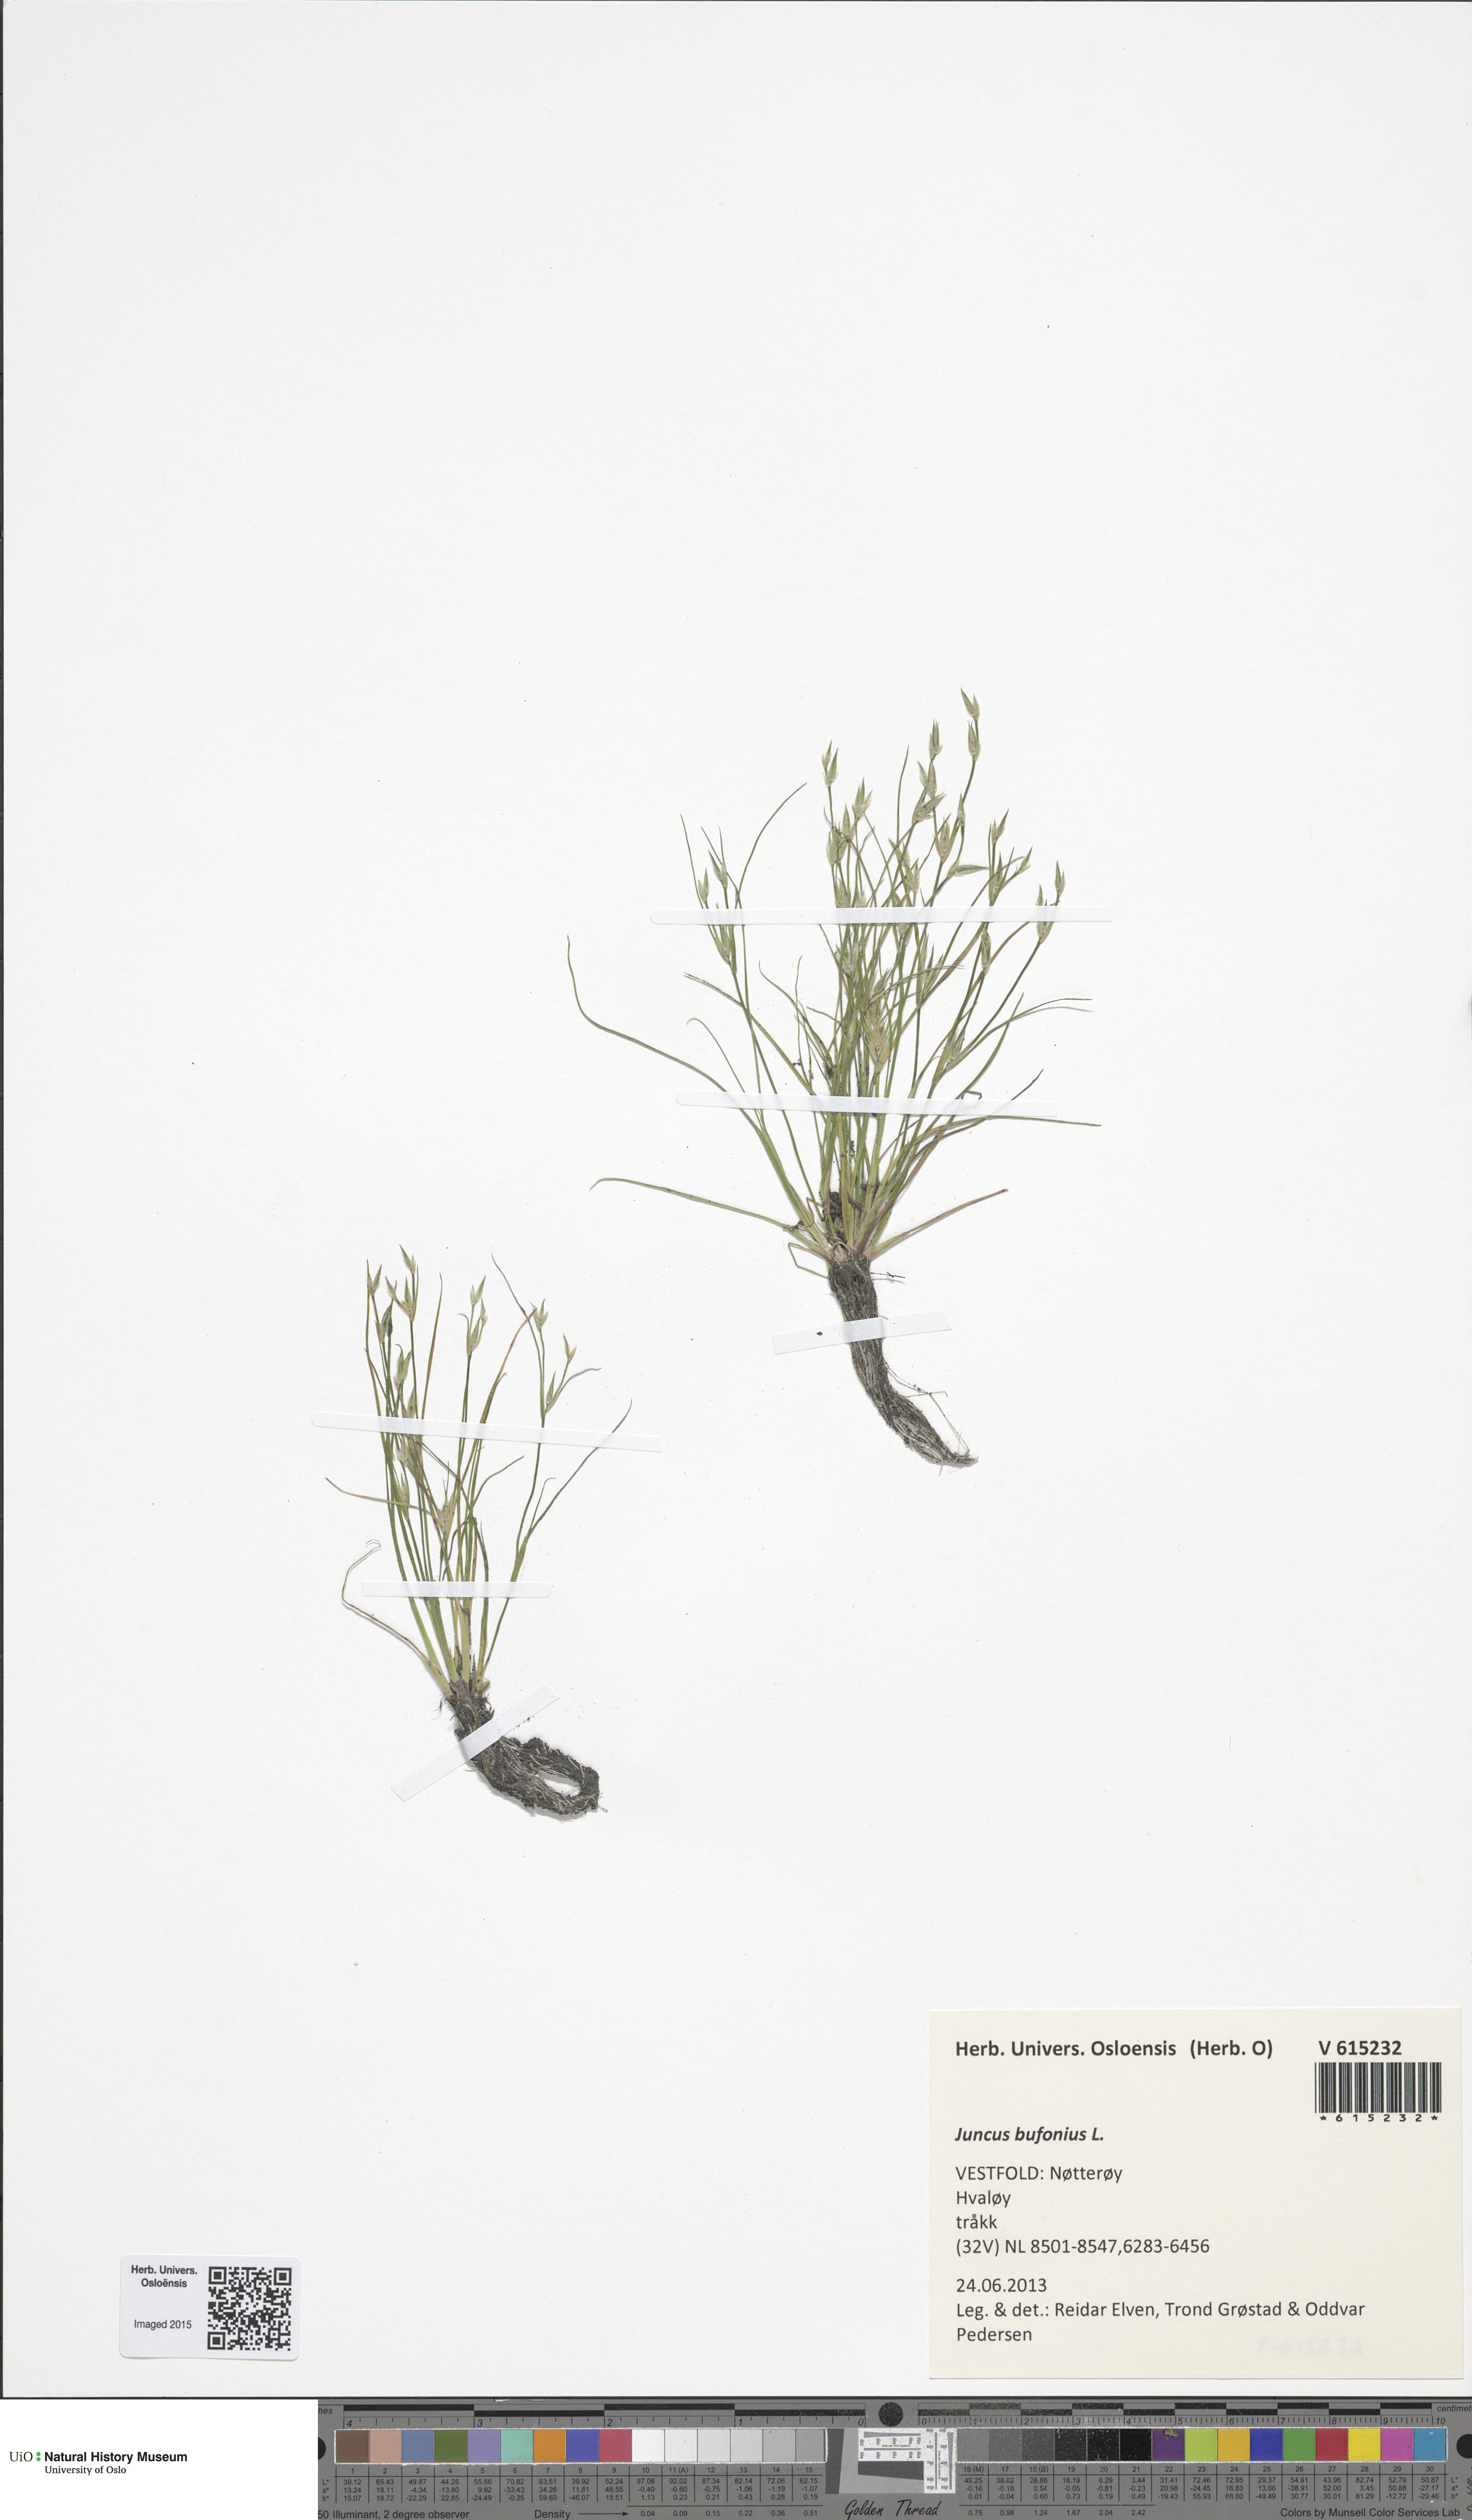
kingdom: Plantae
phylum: Tracheophyta
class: Liliopsida
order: Poales
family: Juncaceae
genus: Juncus
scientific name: Juncus bufonius
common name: Toad rush
